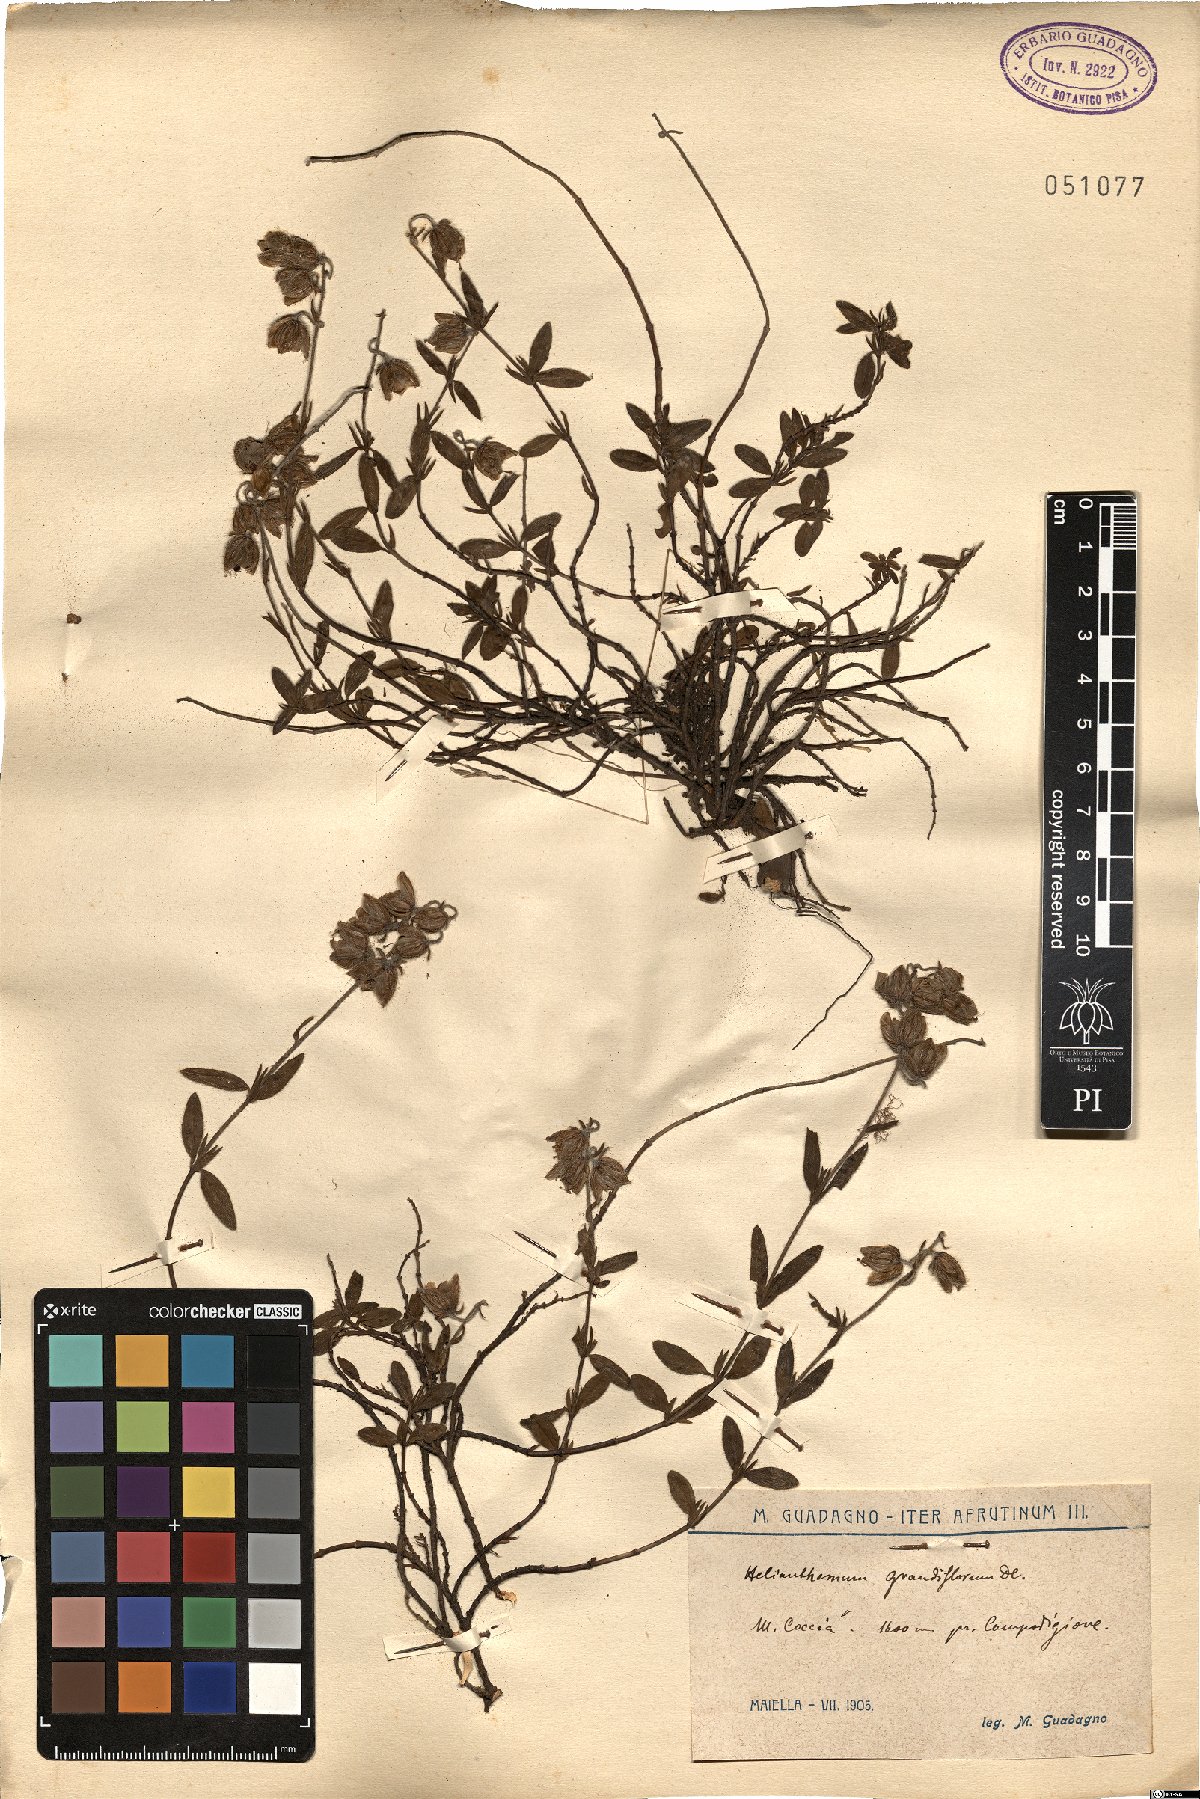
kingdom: Plantae
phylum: Tracheophyta
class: Magnoliopsida
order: Malvales
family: Cistaceae
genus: Helianthemum
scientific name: Helianthemum nummularium
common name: Common rock-rose
